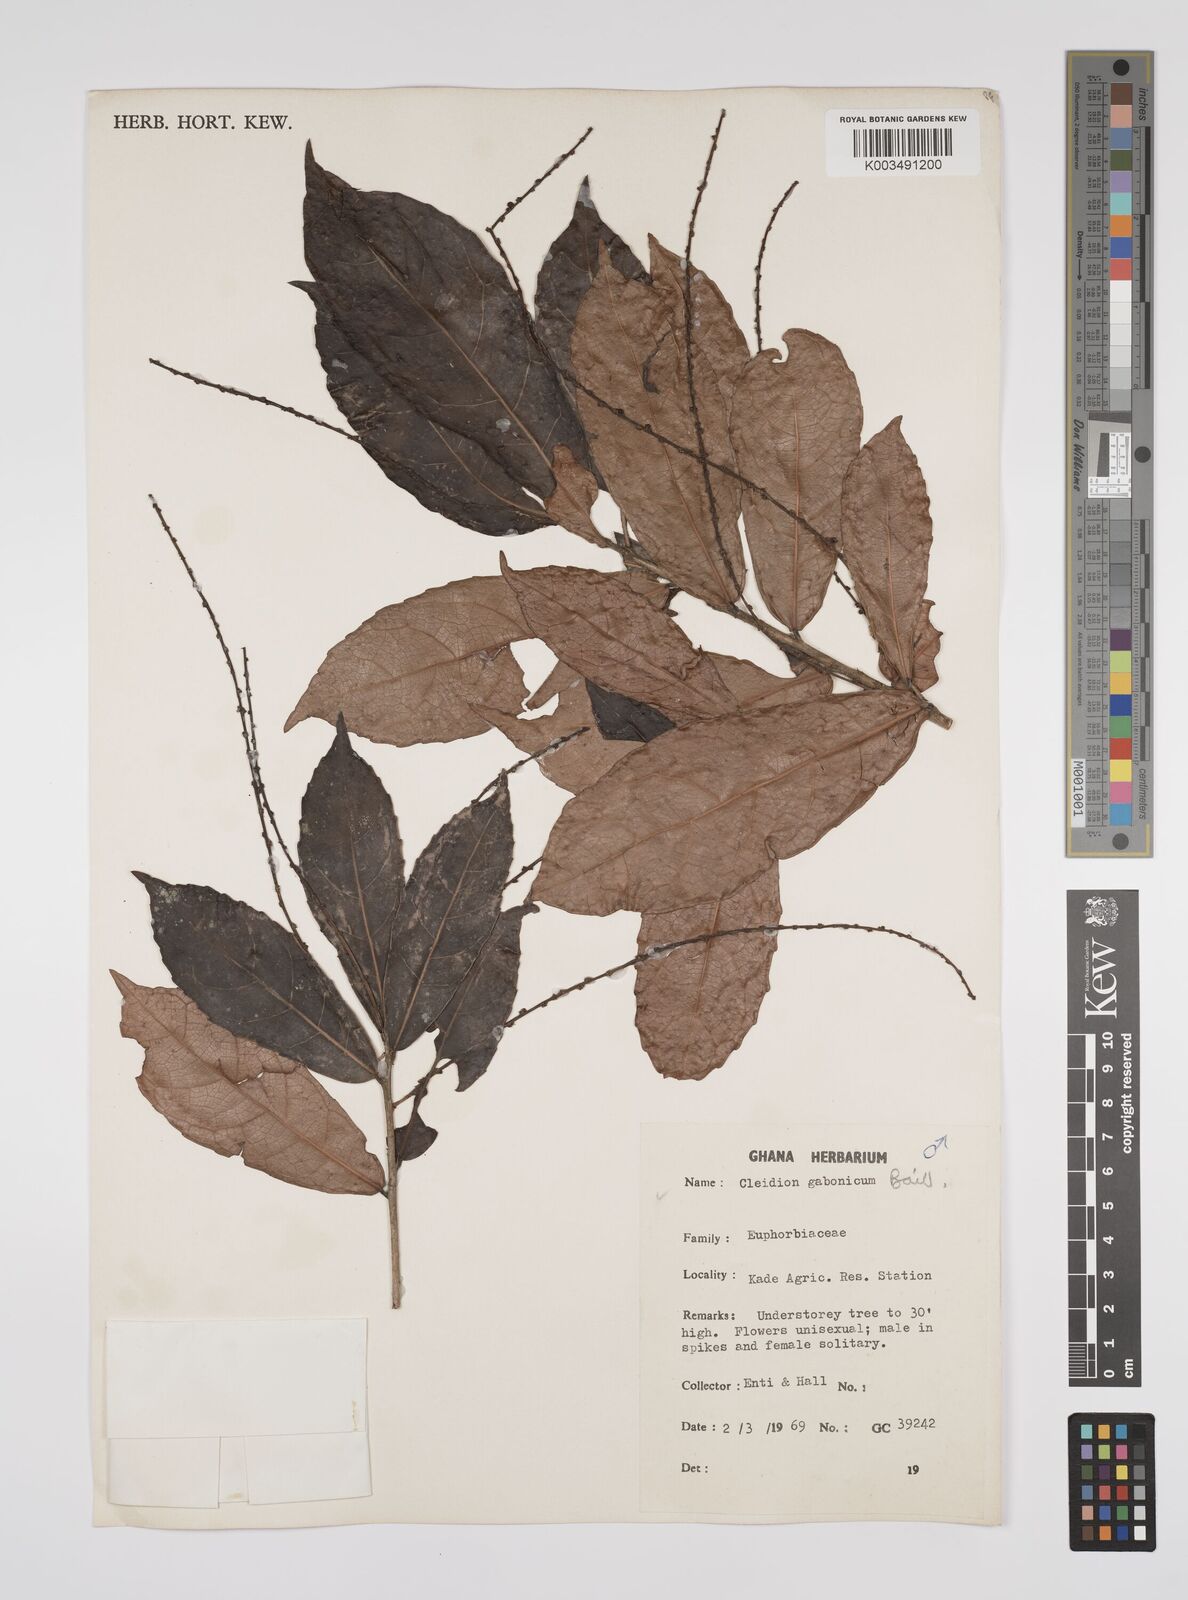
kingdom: Plantae
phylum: Tracheophyta
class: Magnoliopsida
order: Malpighiales
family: Euphorbiaceae
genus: Cleidion
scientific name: Cleidion gabonicum
